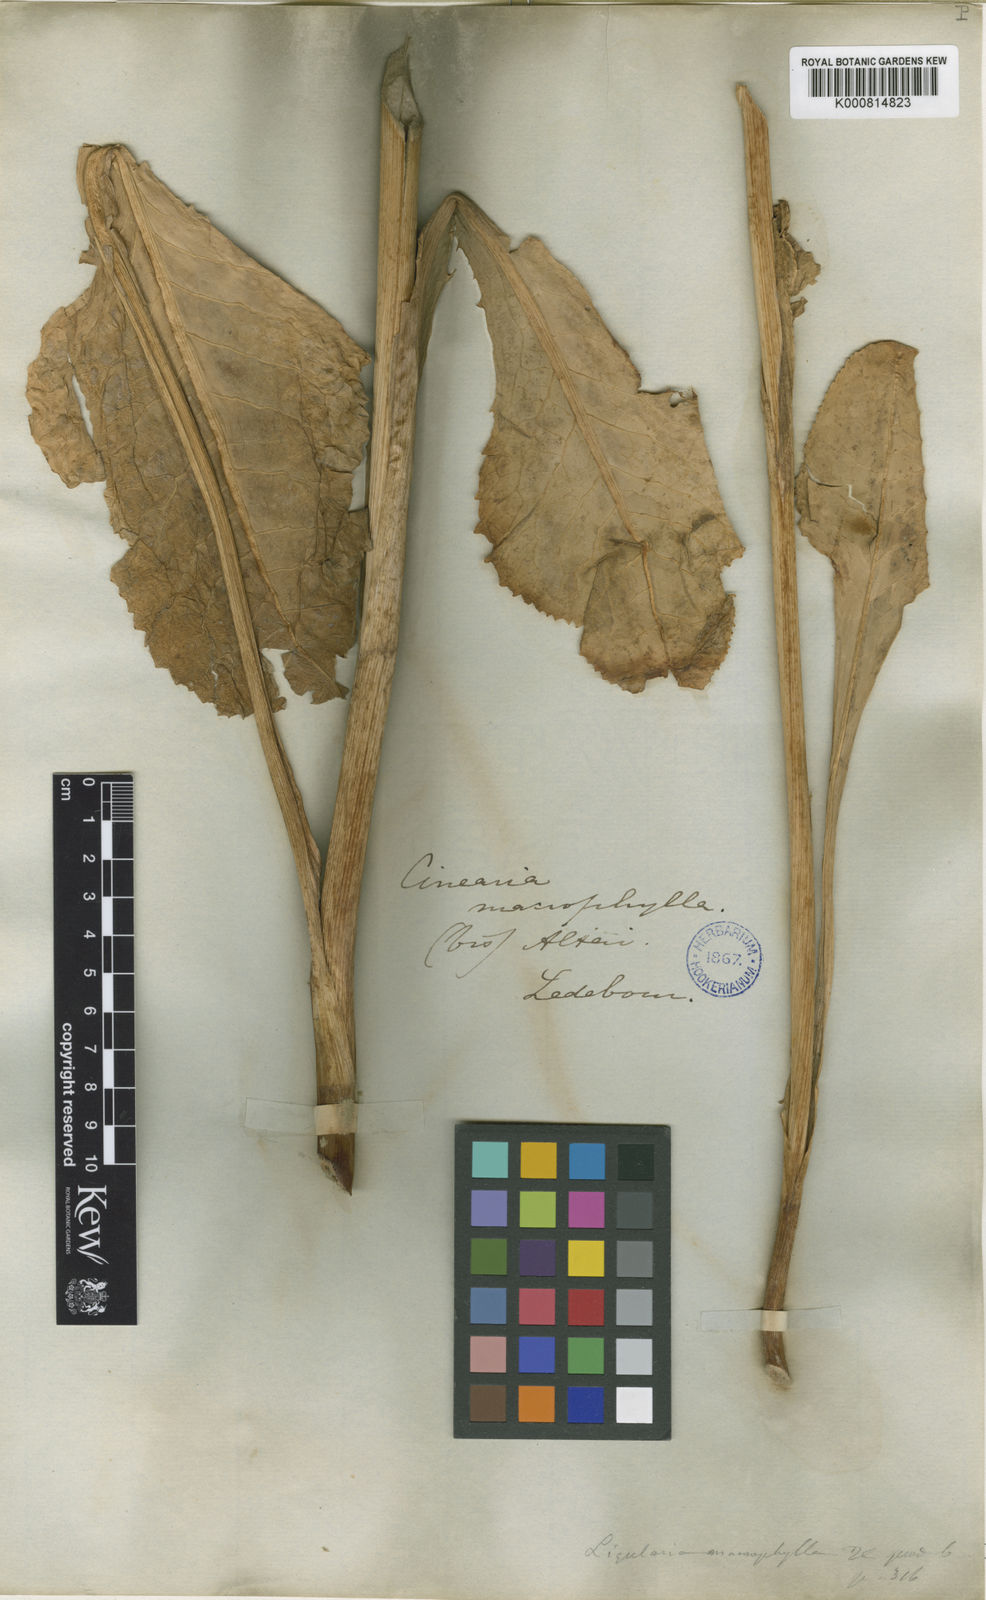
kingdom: Plantae
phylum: Tracheophyta
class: Magnoliopsida
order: Asterales
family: Asteraceae
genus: Ligularia
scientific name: Ligularia macrophylla
